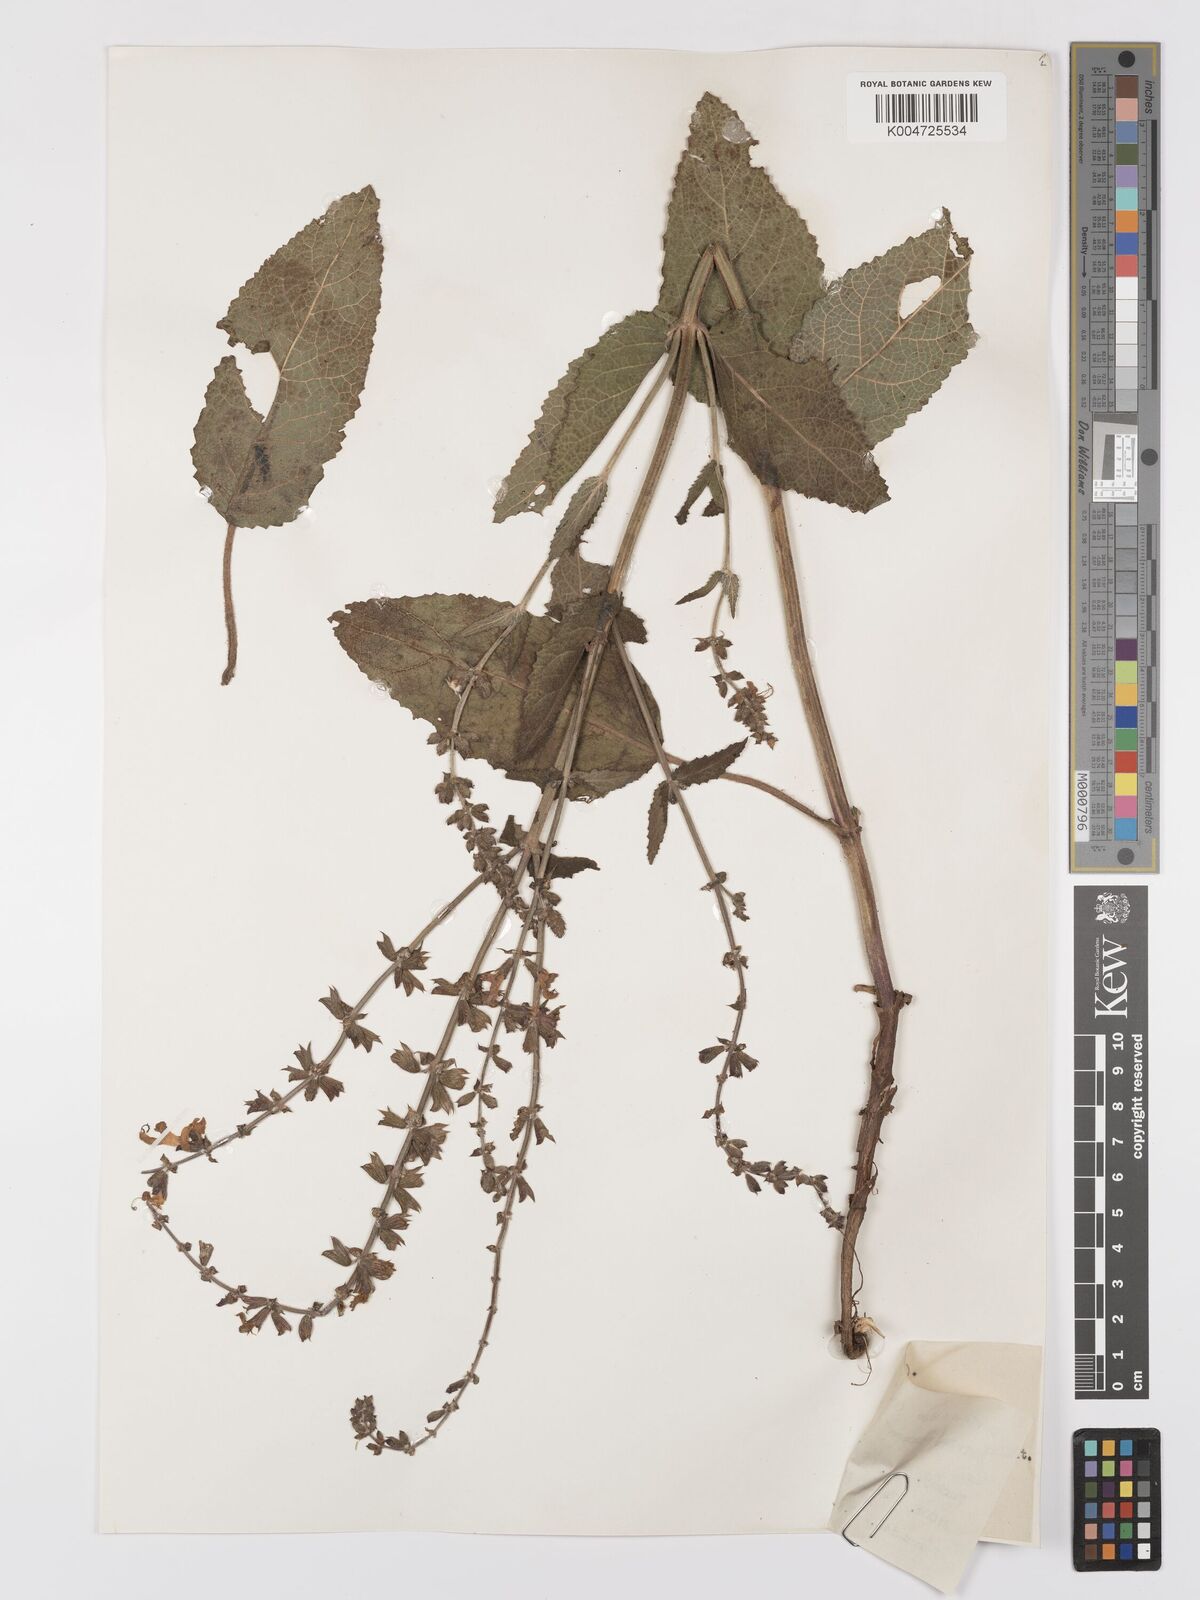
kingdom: Plantae
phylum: Tracheophyta
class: Magnoliopsida
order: Lamiales
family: Lamiaceae
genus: Salvia
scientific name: Salvia
